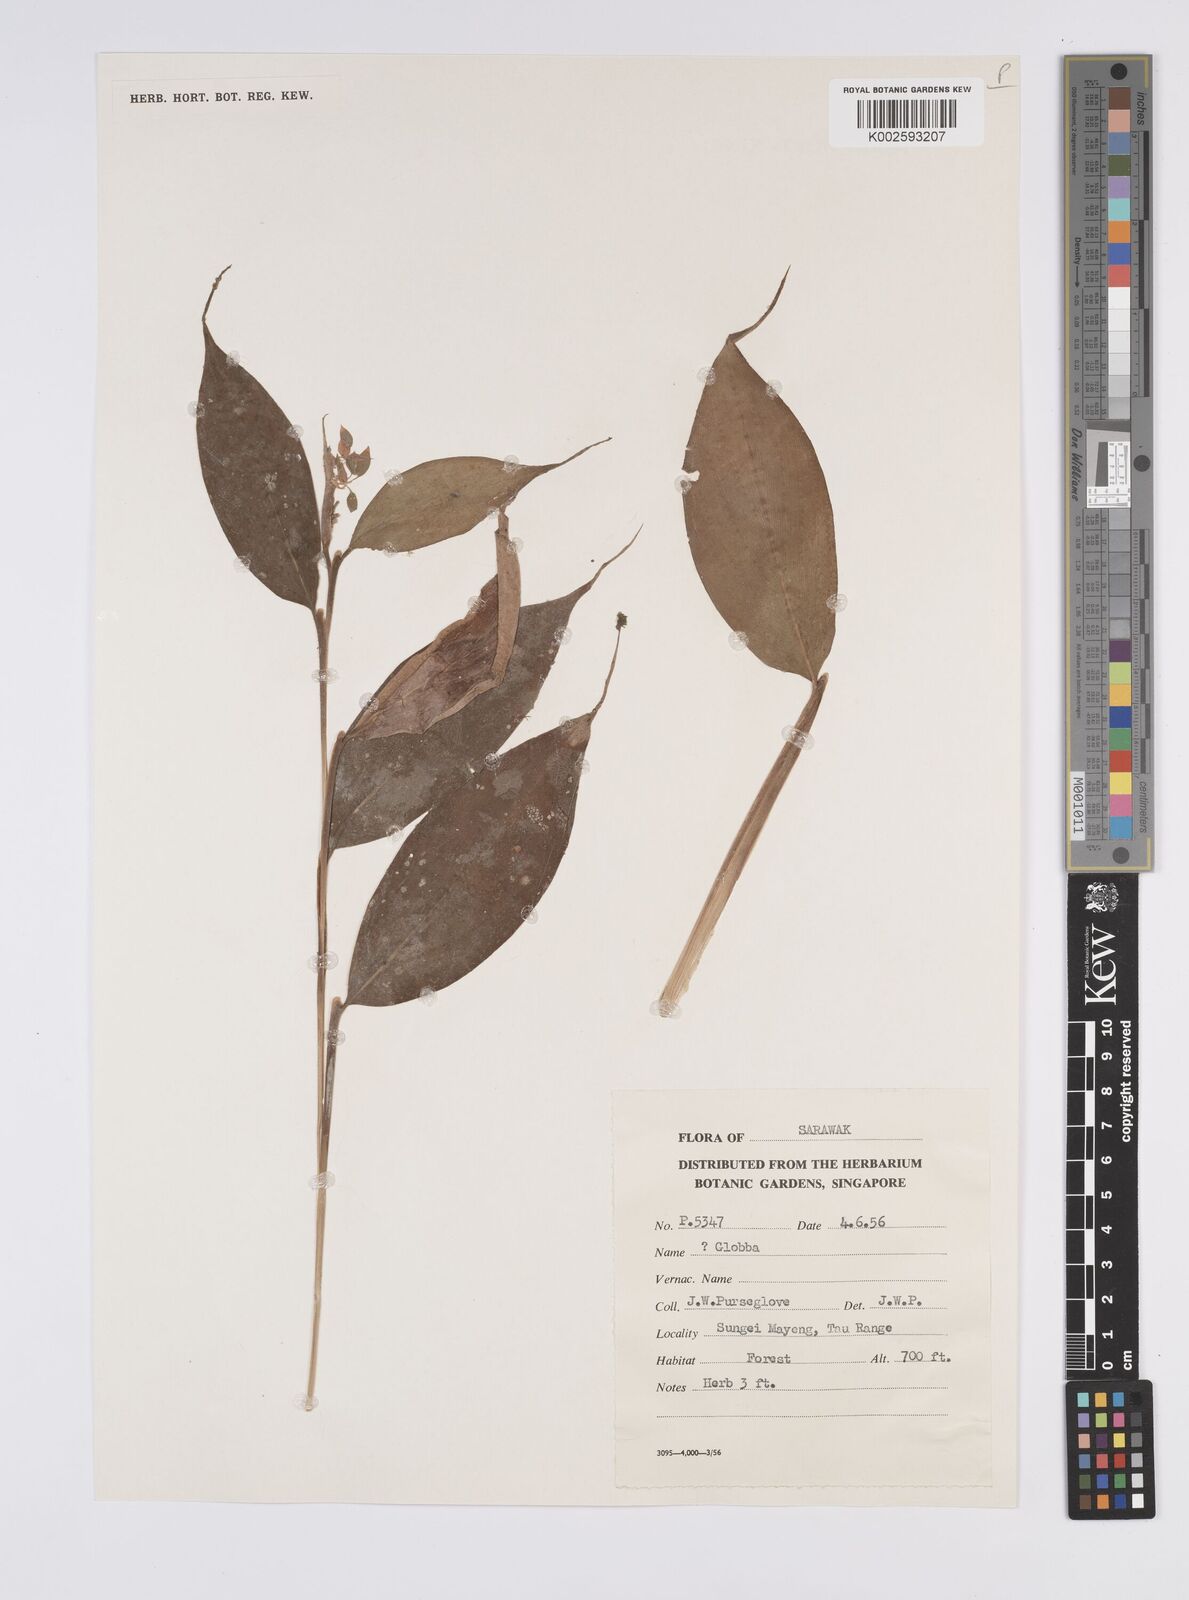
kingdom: Plantae
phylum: Tracheophyta
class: Liliopsida
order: Zingiberales
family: Zingiberaceae
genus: Globba
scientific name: Globba
